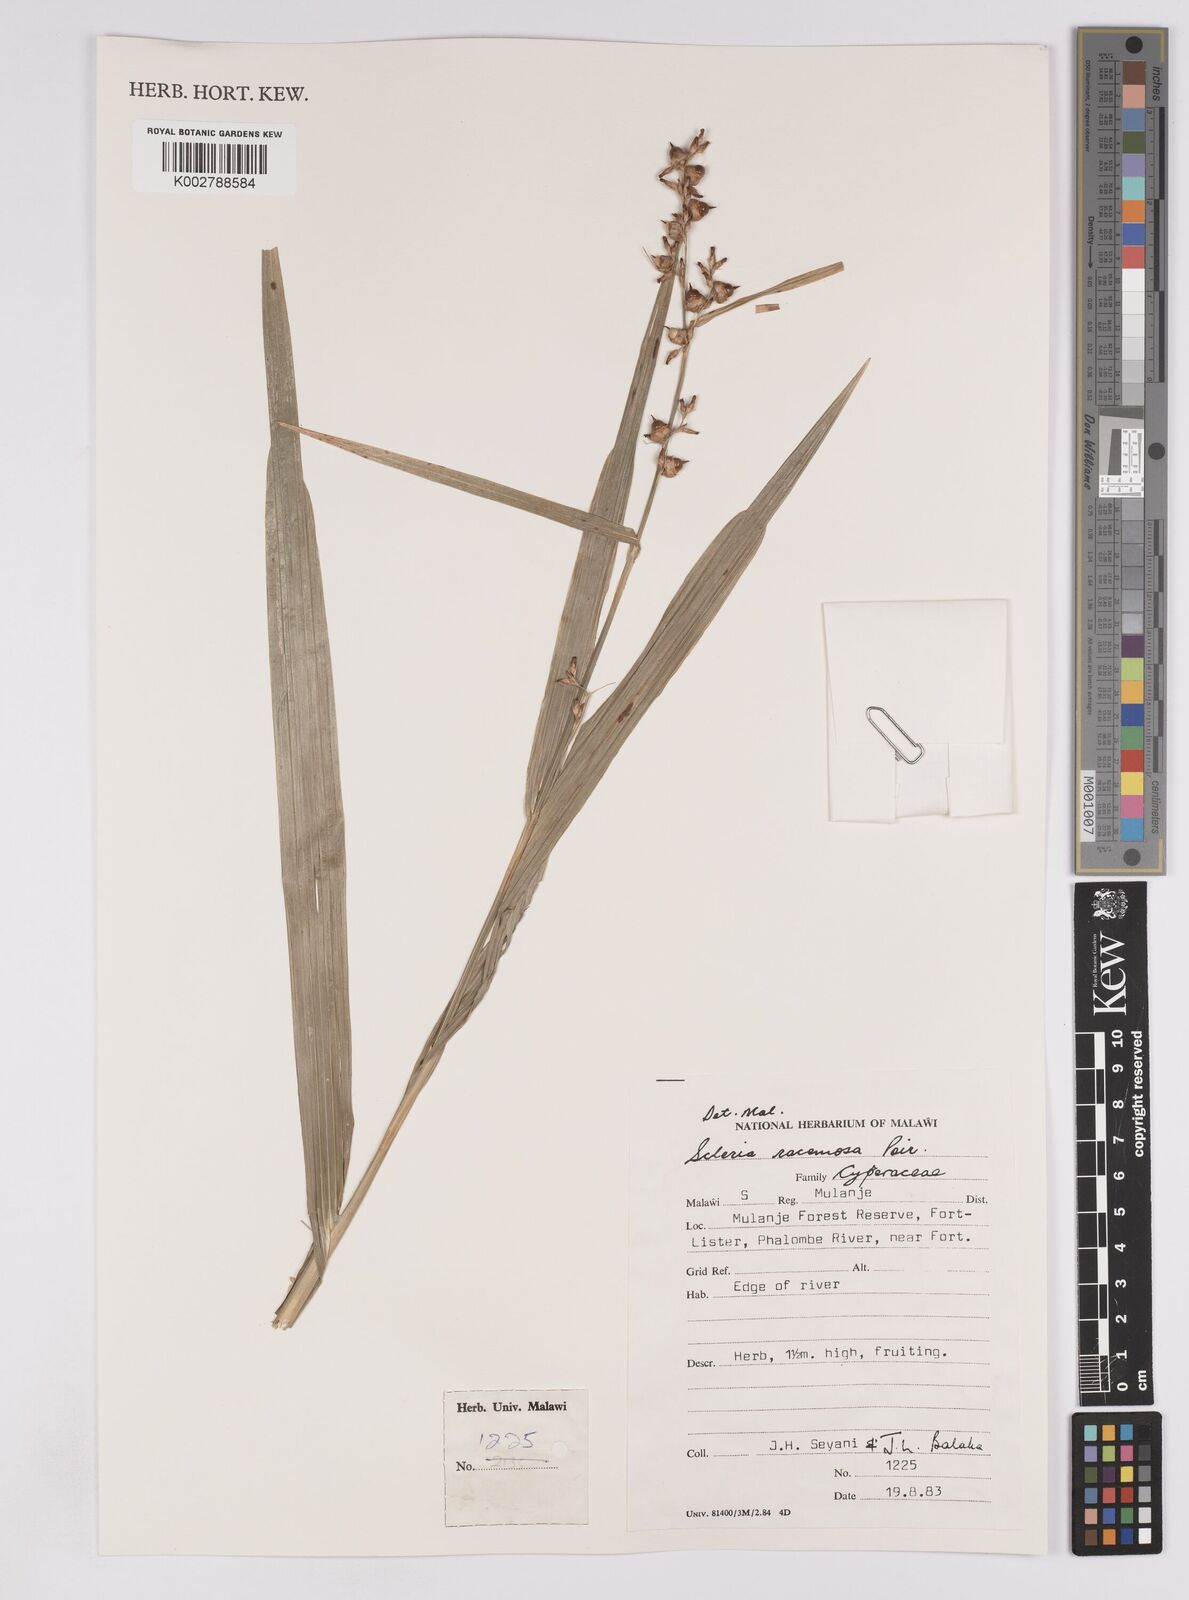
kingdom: Plantae
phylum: Tracheophyta
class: Liliopsida
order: Poales
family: Cyperaceae
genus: Scleria
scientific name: Scleria racemosa
